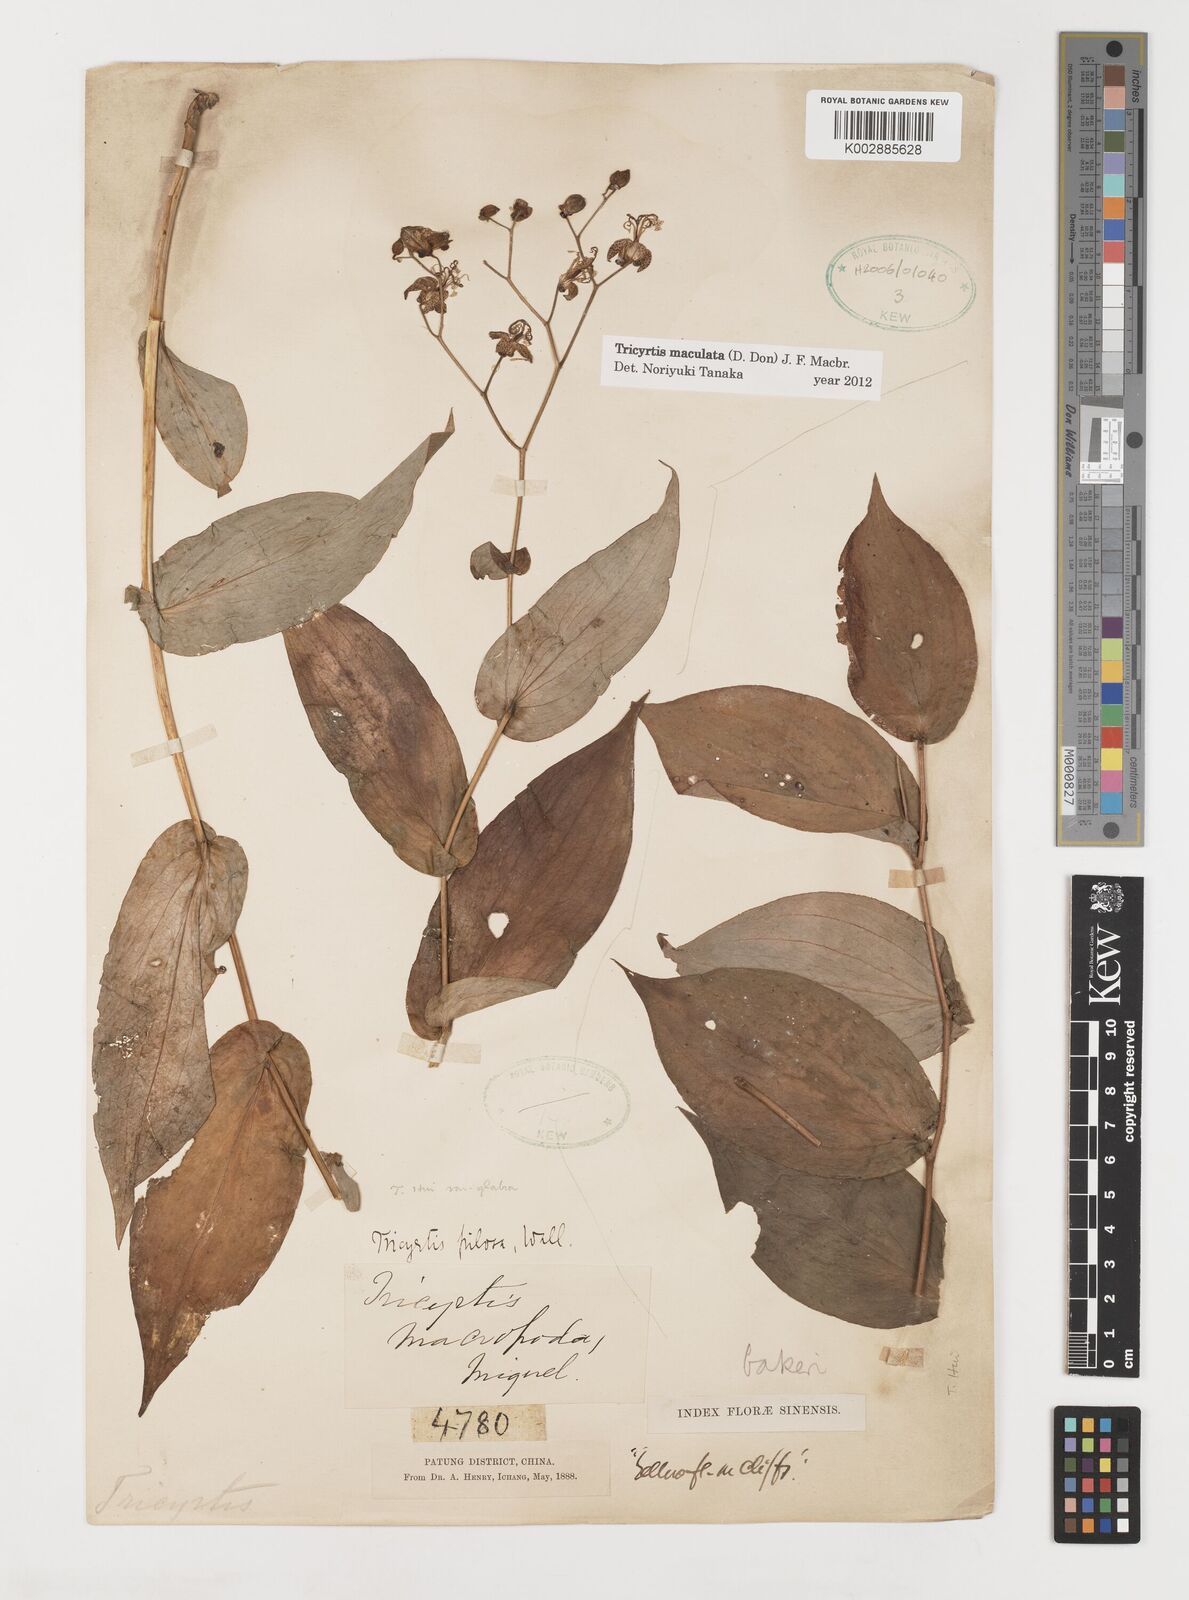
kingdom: Plantae
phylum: Tracheophyta
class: Liliopsida
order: Liliales
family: Liliaceae
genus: Tricyrtis
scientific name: Tricyrtis maculata
